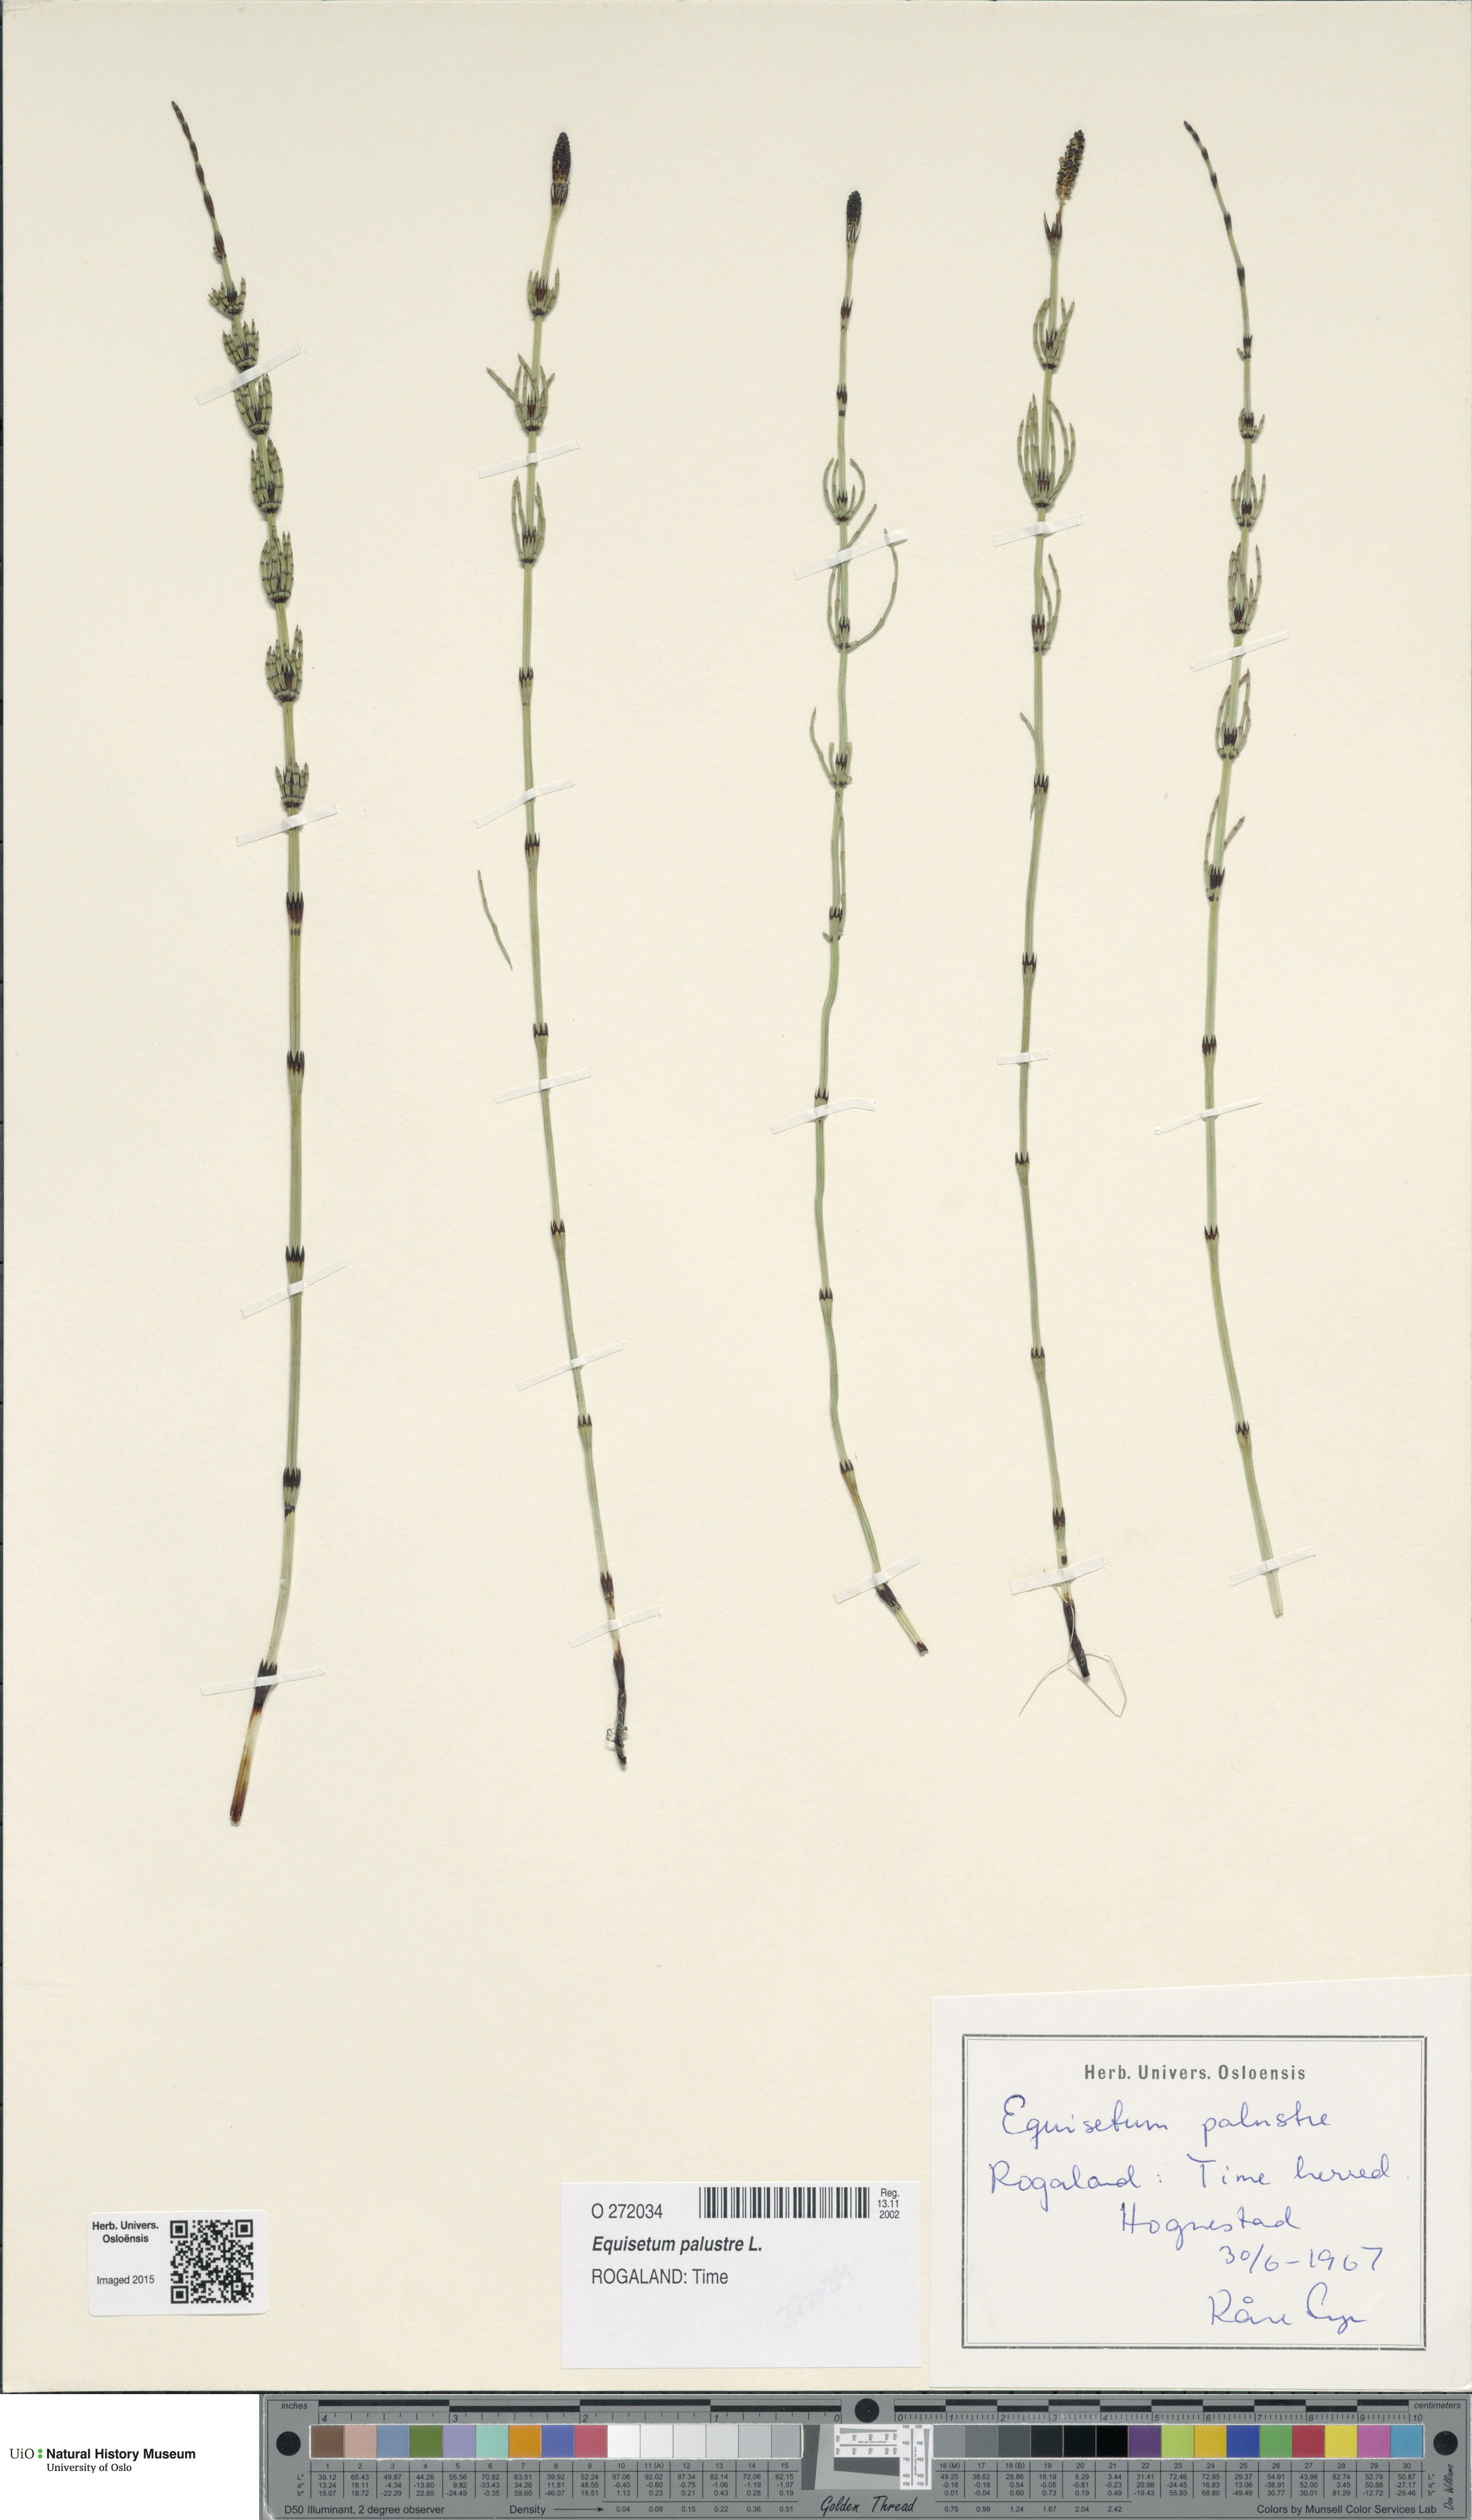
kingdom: Plantae
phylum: Tracheophyta
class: Polypodiopsida
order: Equisetales
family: Equisetaceae
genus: Equisetum
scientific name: Equisetum palustre
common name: Marsh horsetail
